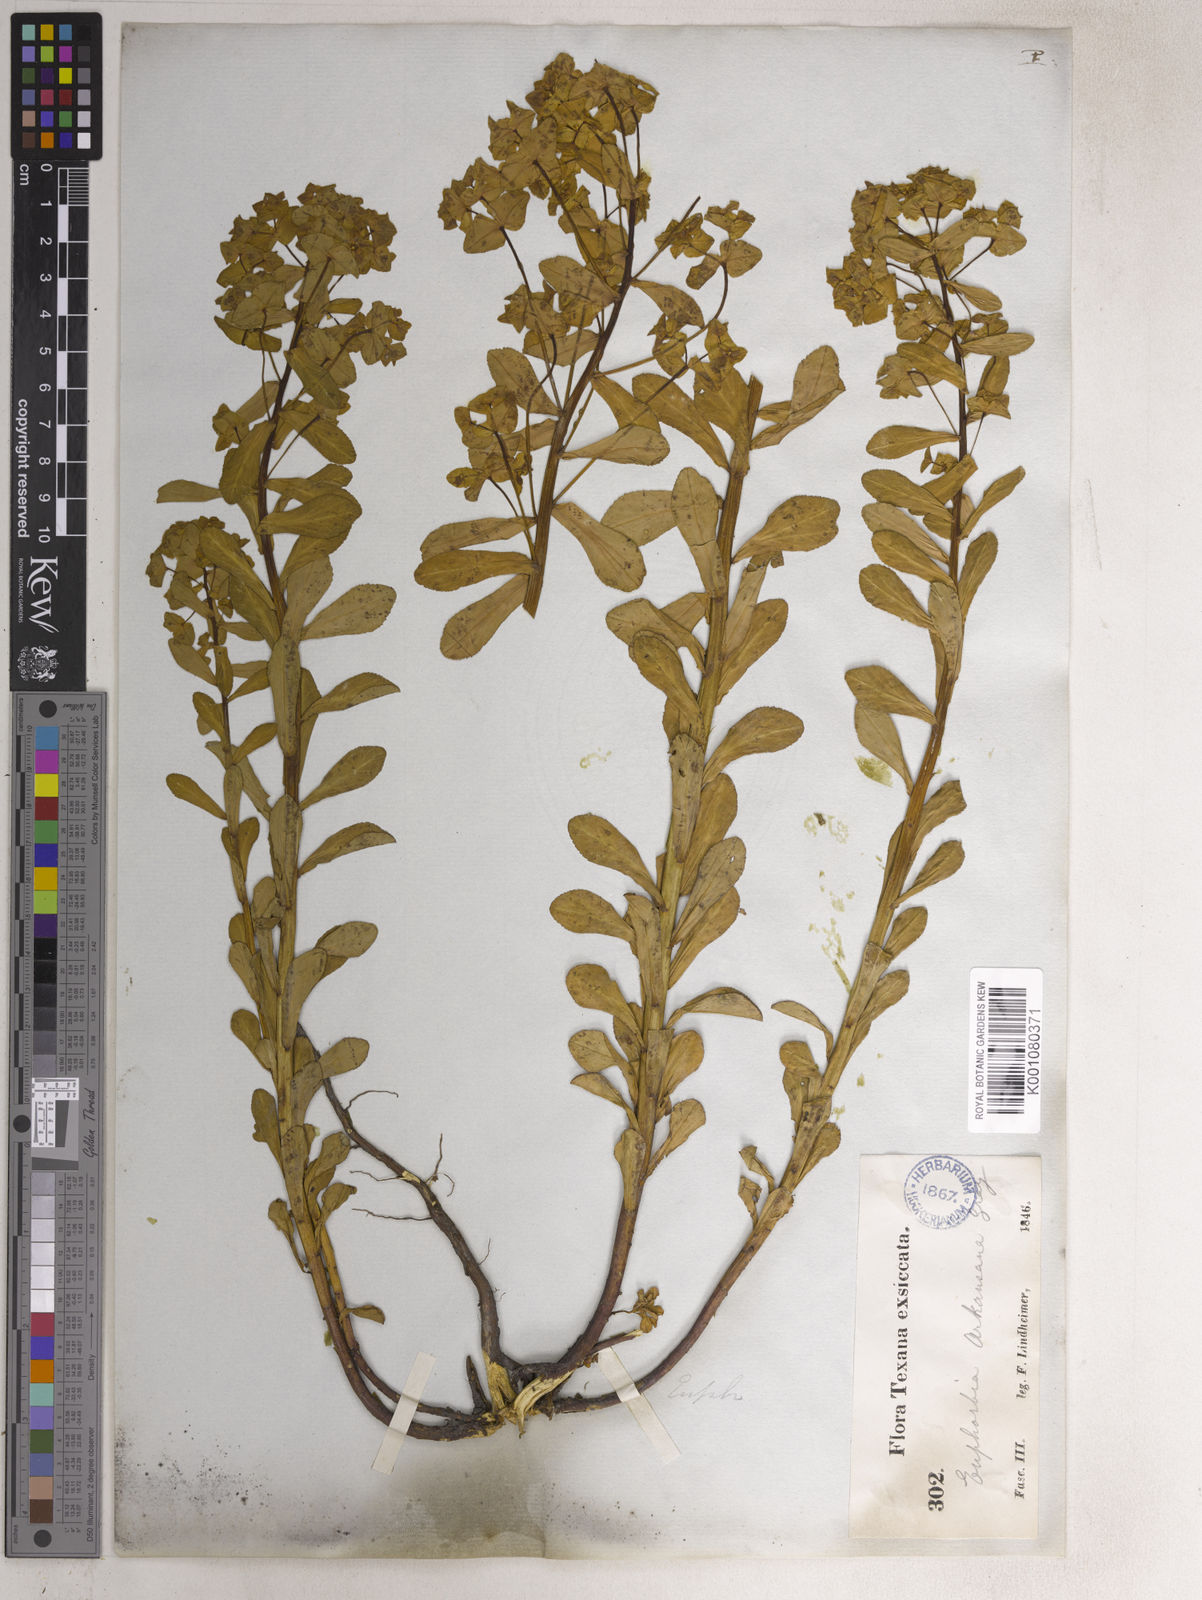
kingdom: Plantae
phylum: Tracheophyta
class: Magnoliopsida
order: Malpighiales
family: Euphorbiaceae
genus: Euphorbia
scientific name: Euphorbia spathulata
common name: Blunt spurge
